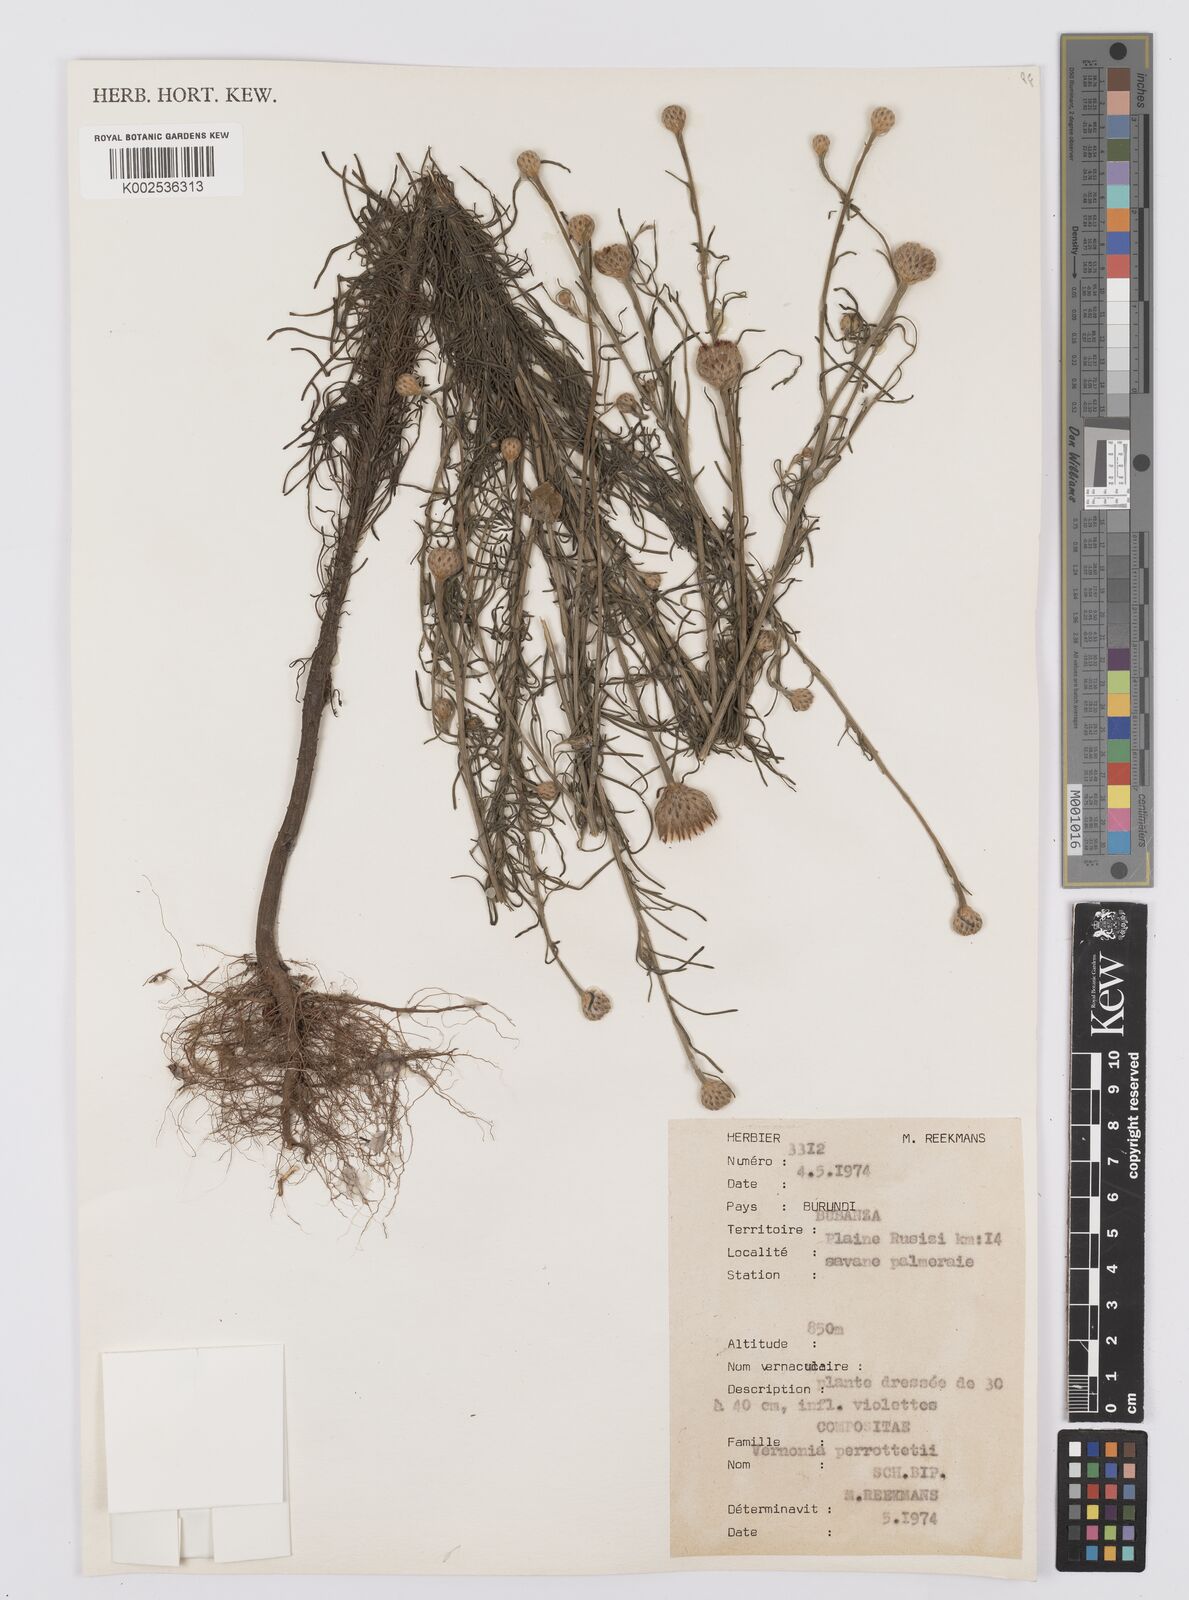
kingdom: Plantae
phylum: Tracheophyta
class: Magnoliopsida
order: Asterales
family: Asteraceae
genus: Crystallopollen
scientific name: Crystallopollen serratuloides
